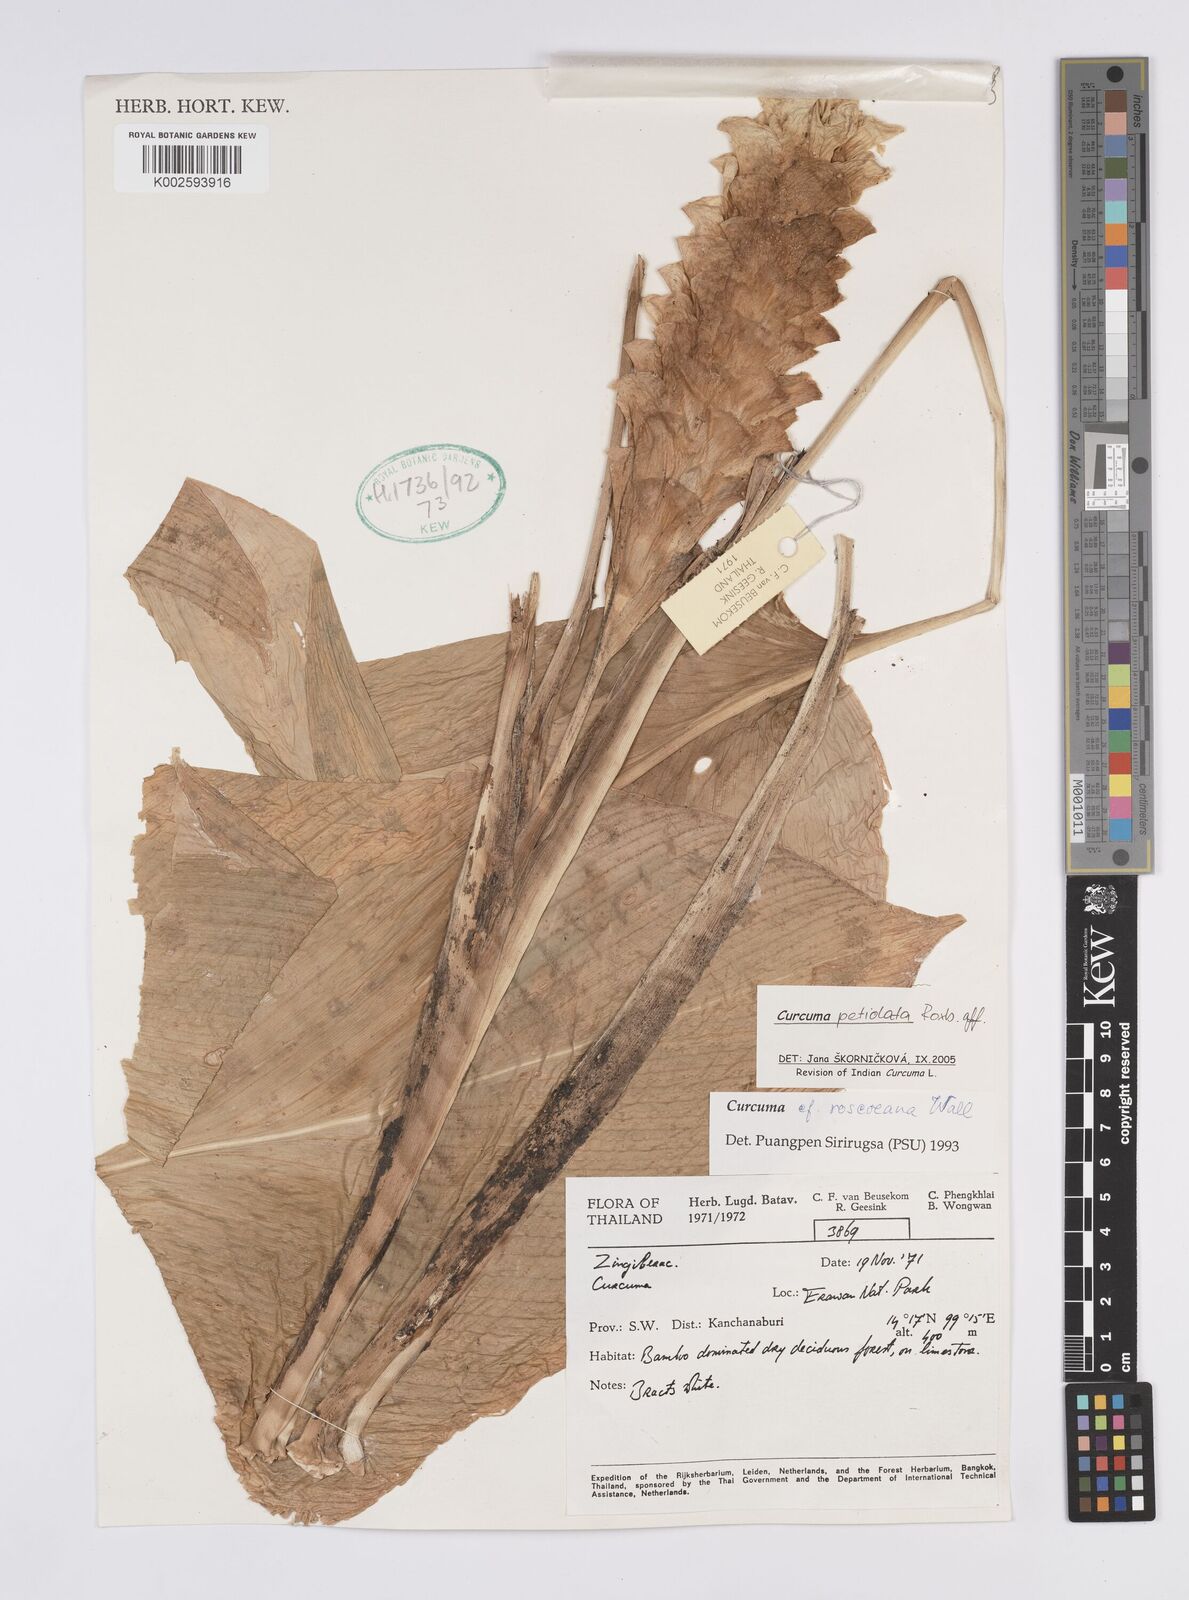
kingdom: Plantae
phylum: Tracheophyta
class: Liliopsida
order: Zingiberales
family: Zingiberaceae
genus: Curcuma
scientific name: Curcuma petiolata
